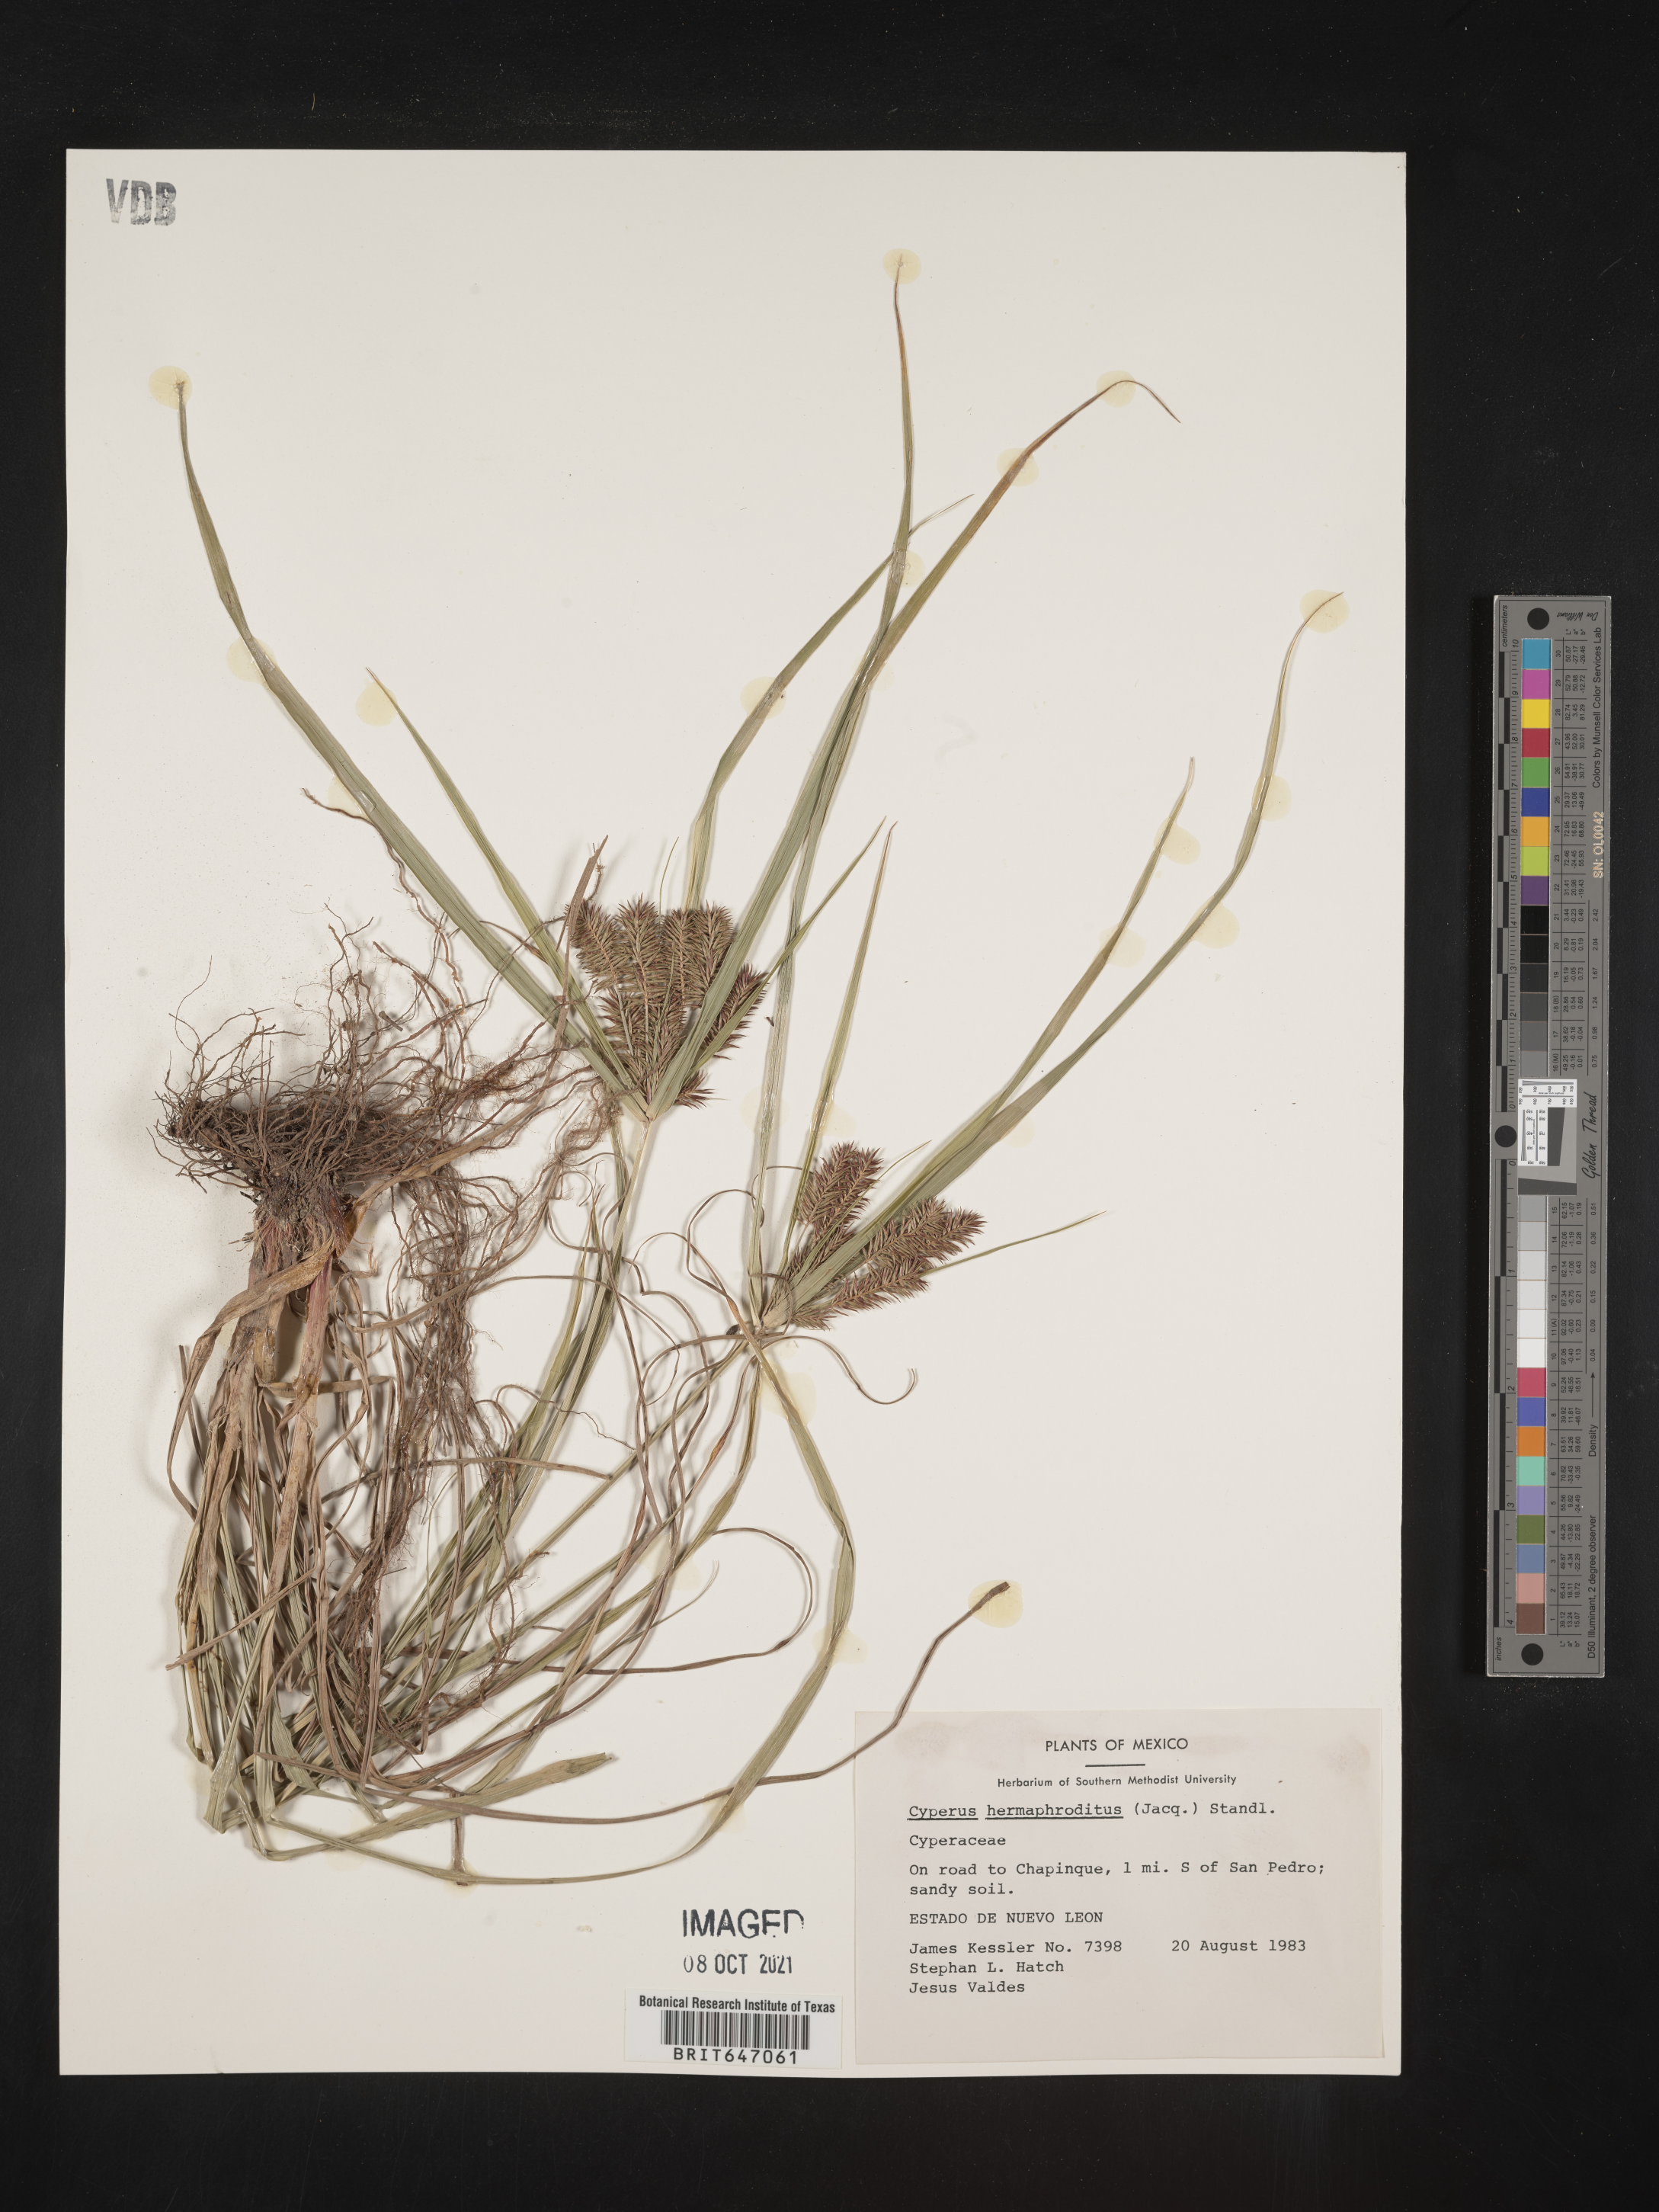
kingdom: Plantae
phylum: Tracheophyta
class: Liliopsida
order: Poales
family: Cyperaceae
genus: Cyperus
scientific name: Cyperus hermaphroditus
